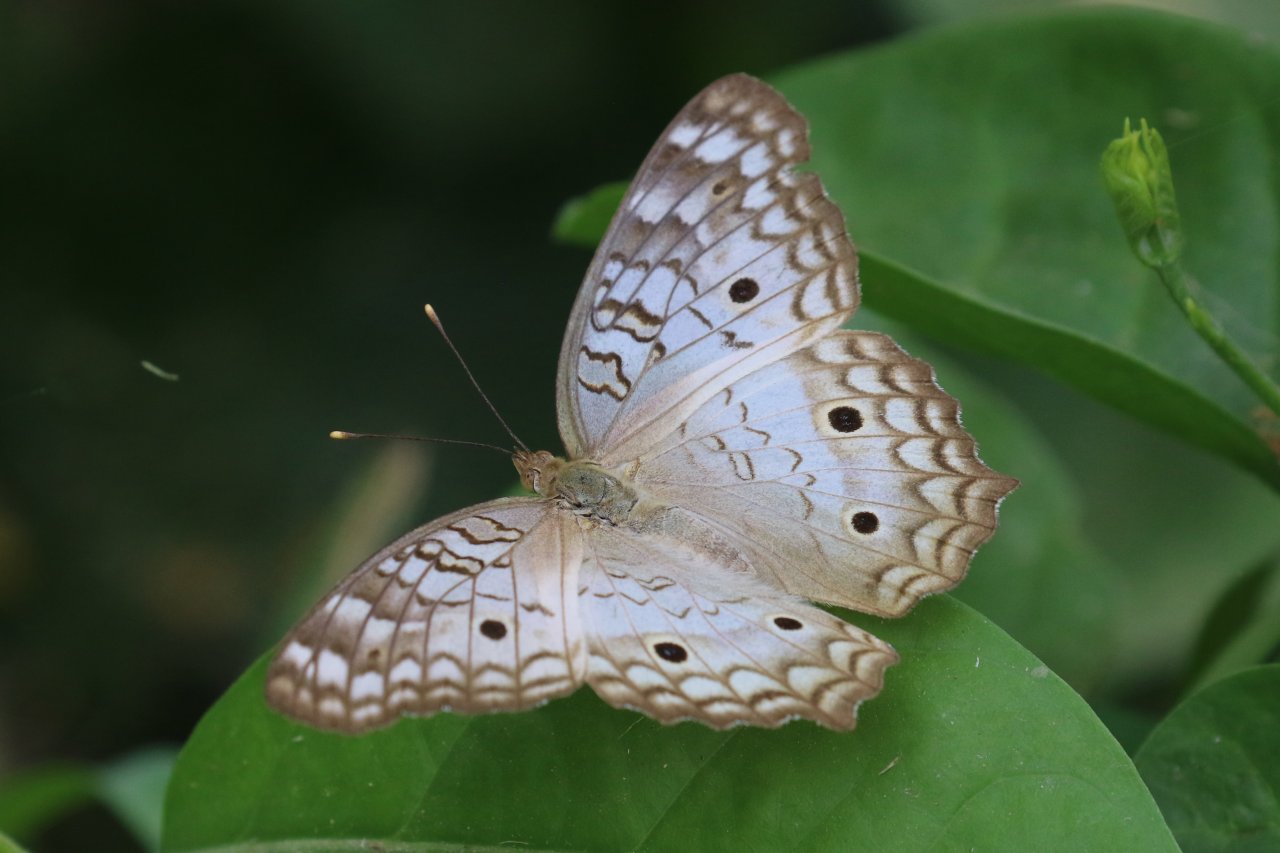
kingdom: Animalia
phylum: Arthropoda
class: Insecta
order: Lepidoptera
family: Nymphalidae
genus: Anartia
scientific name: Anartia jatrophae
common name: White Peacock
